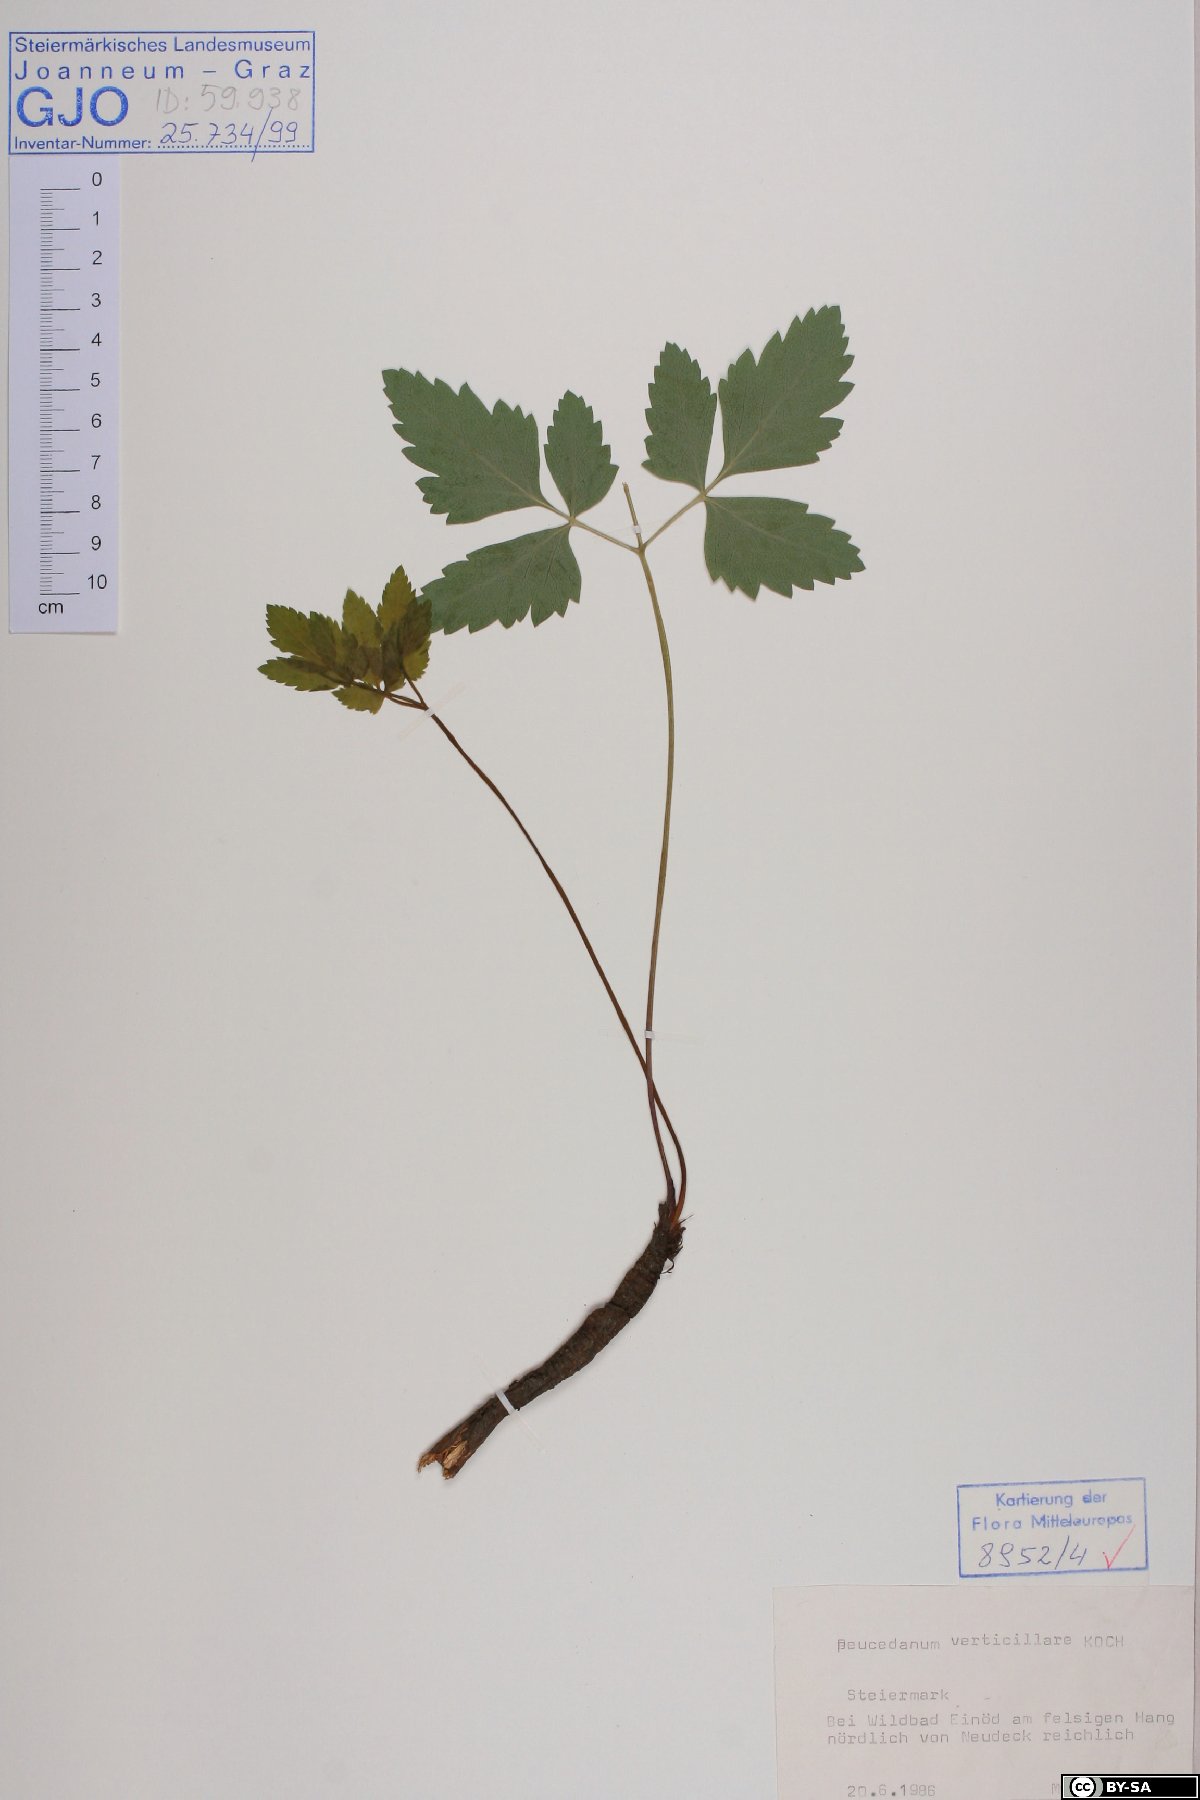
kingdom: Plantae
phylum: Tracheophyta
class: Magnoliopsida
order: Apiales
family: Apiaceae
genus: Tommasinia
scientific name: Tommasinia altissima
